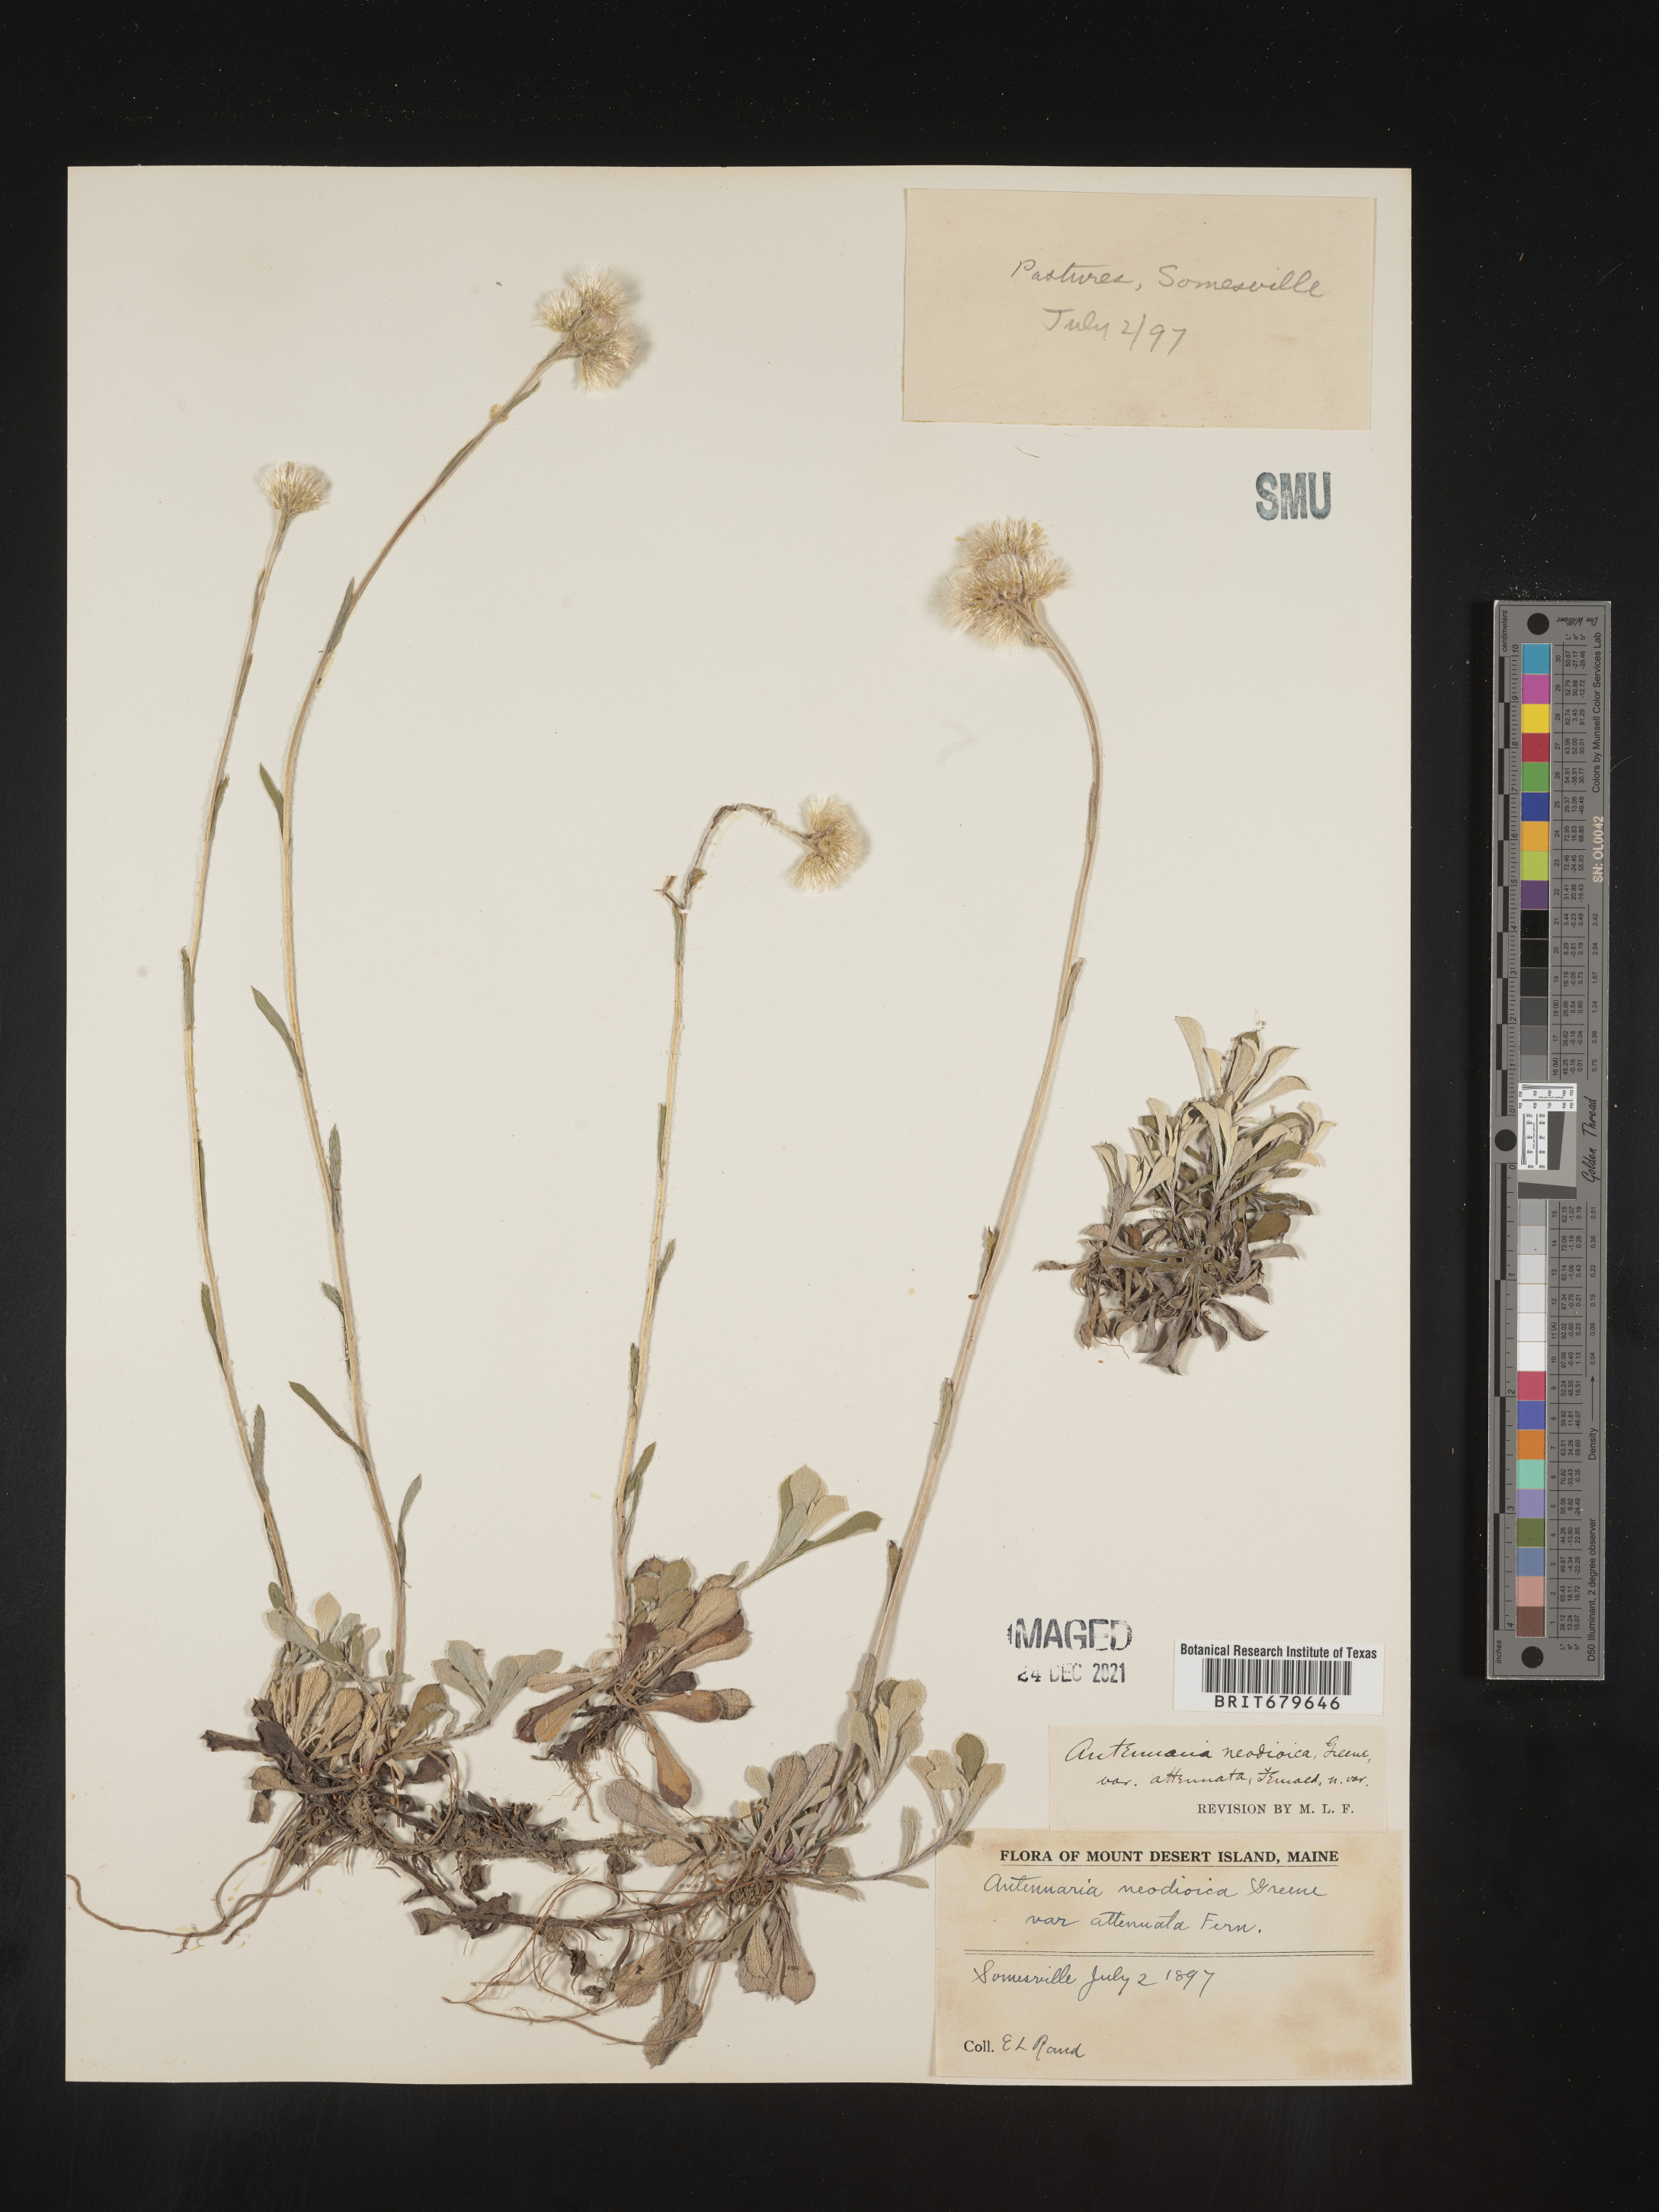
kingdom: Plantae
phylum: Tracheophyta
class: Magnoliopsida
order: Asterales
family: Asteraceae
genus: Antennaria
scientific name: Antennaria howellii
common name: Howell's pussytoes
